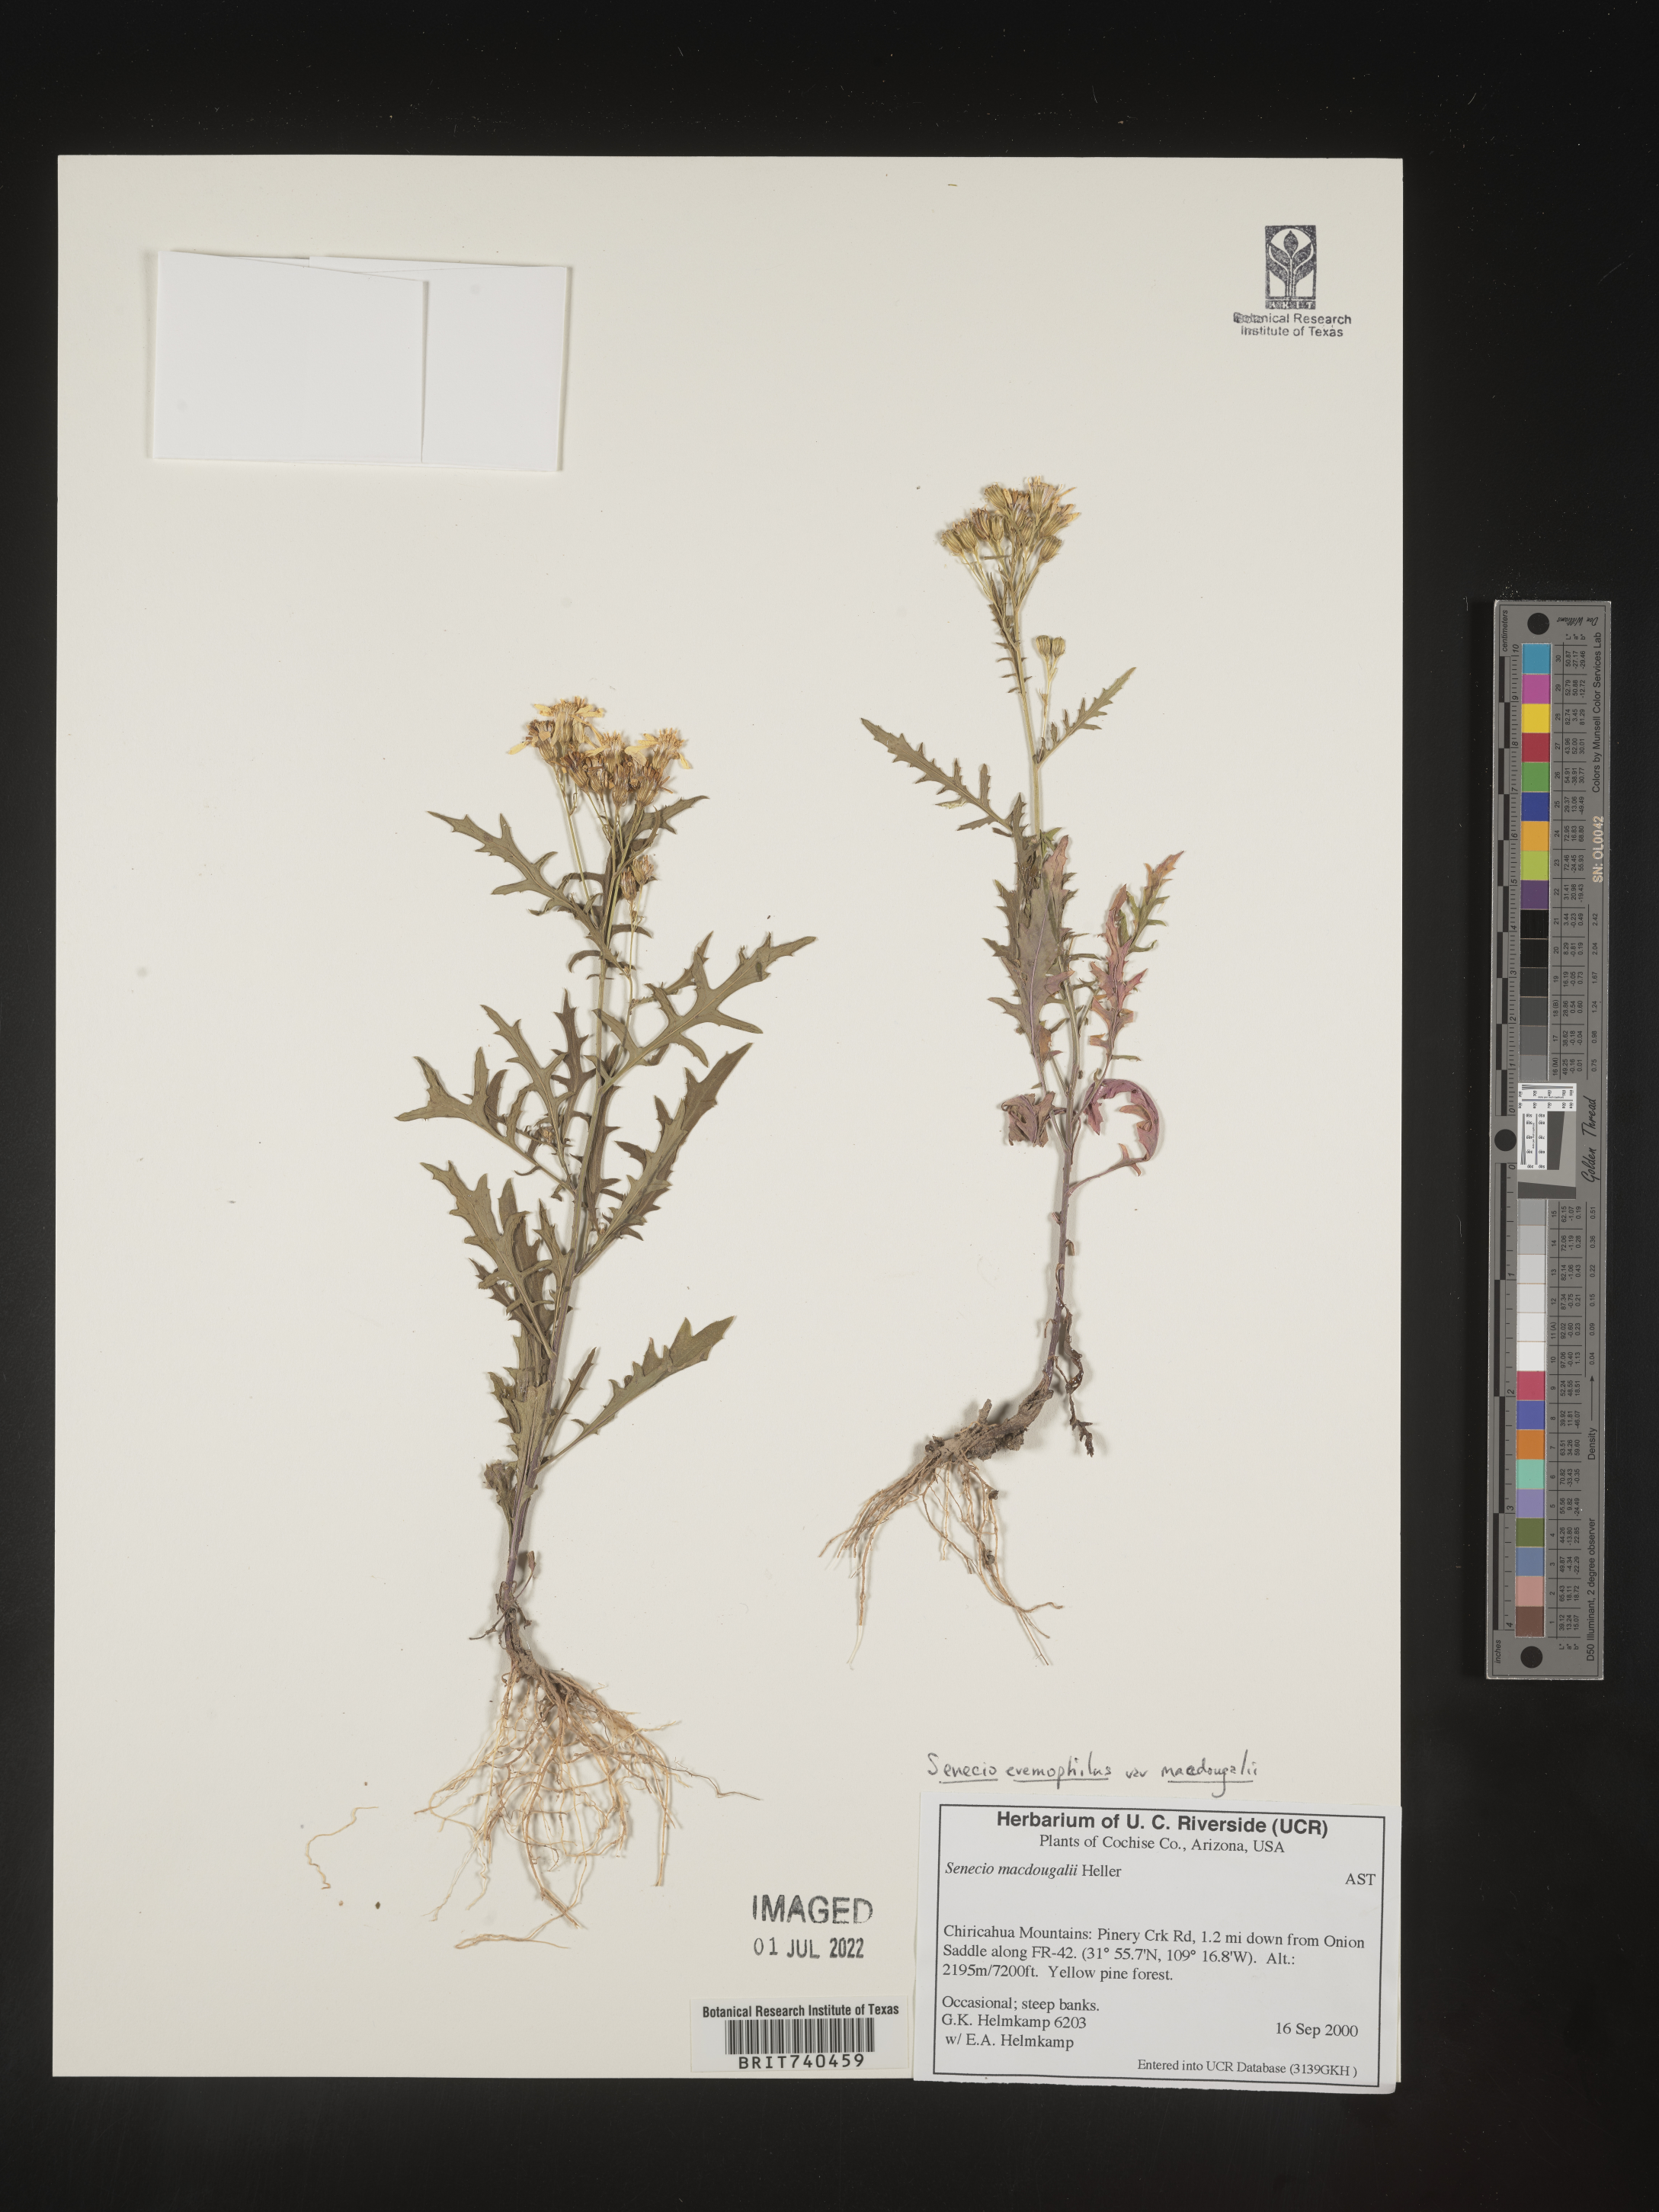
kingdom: Plantae
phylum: Tracheophyta
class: Magnoliopsida
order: Asterales
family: Asteraceae
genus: Senecio
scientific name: Senecio eremophilus
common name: Desert ragwort
